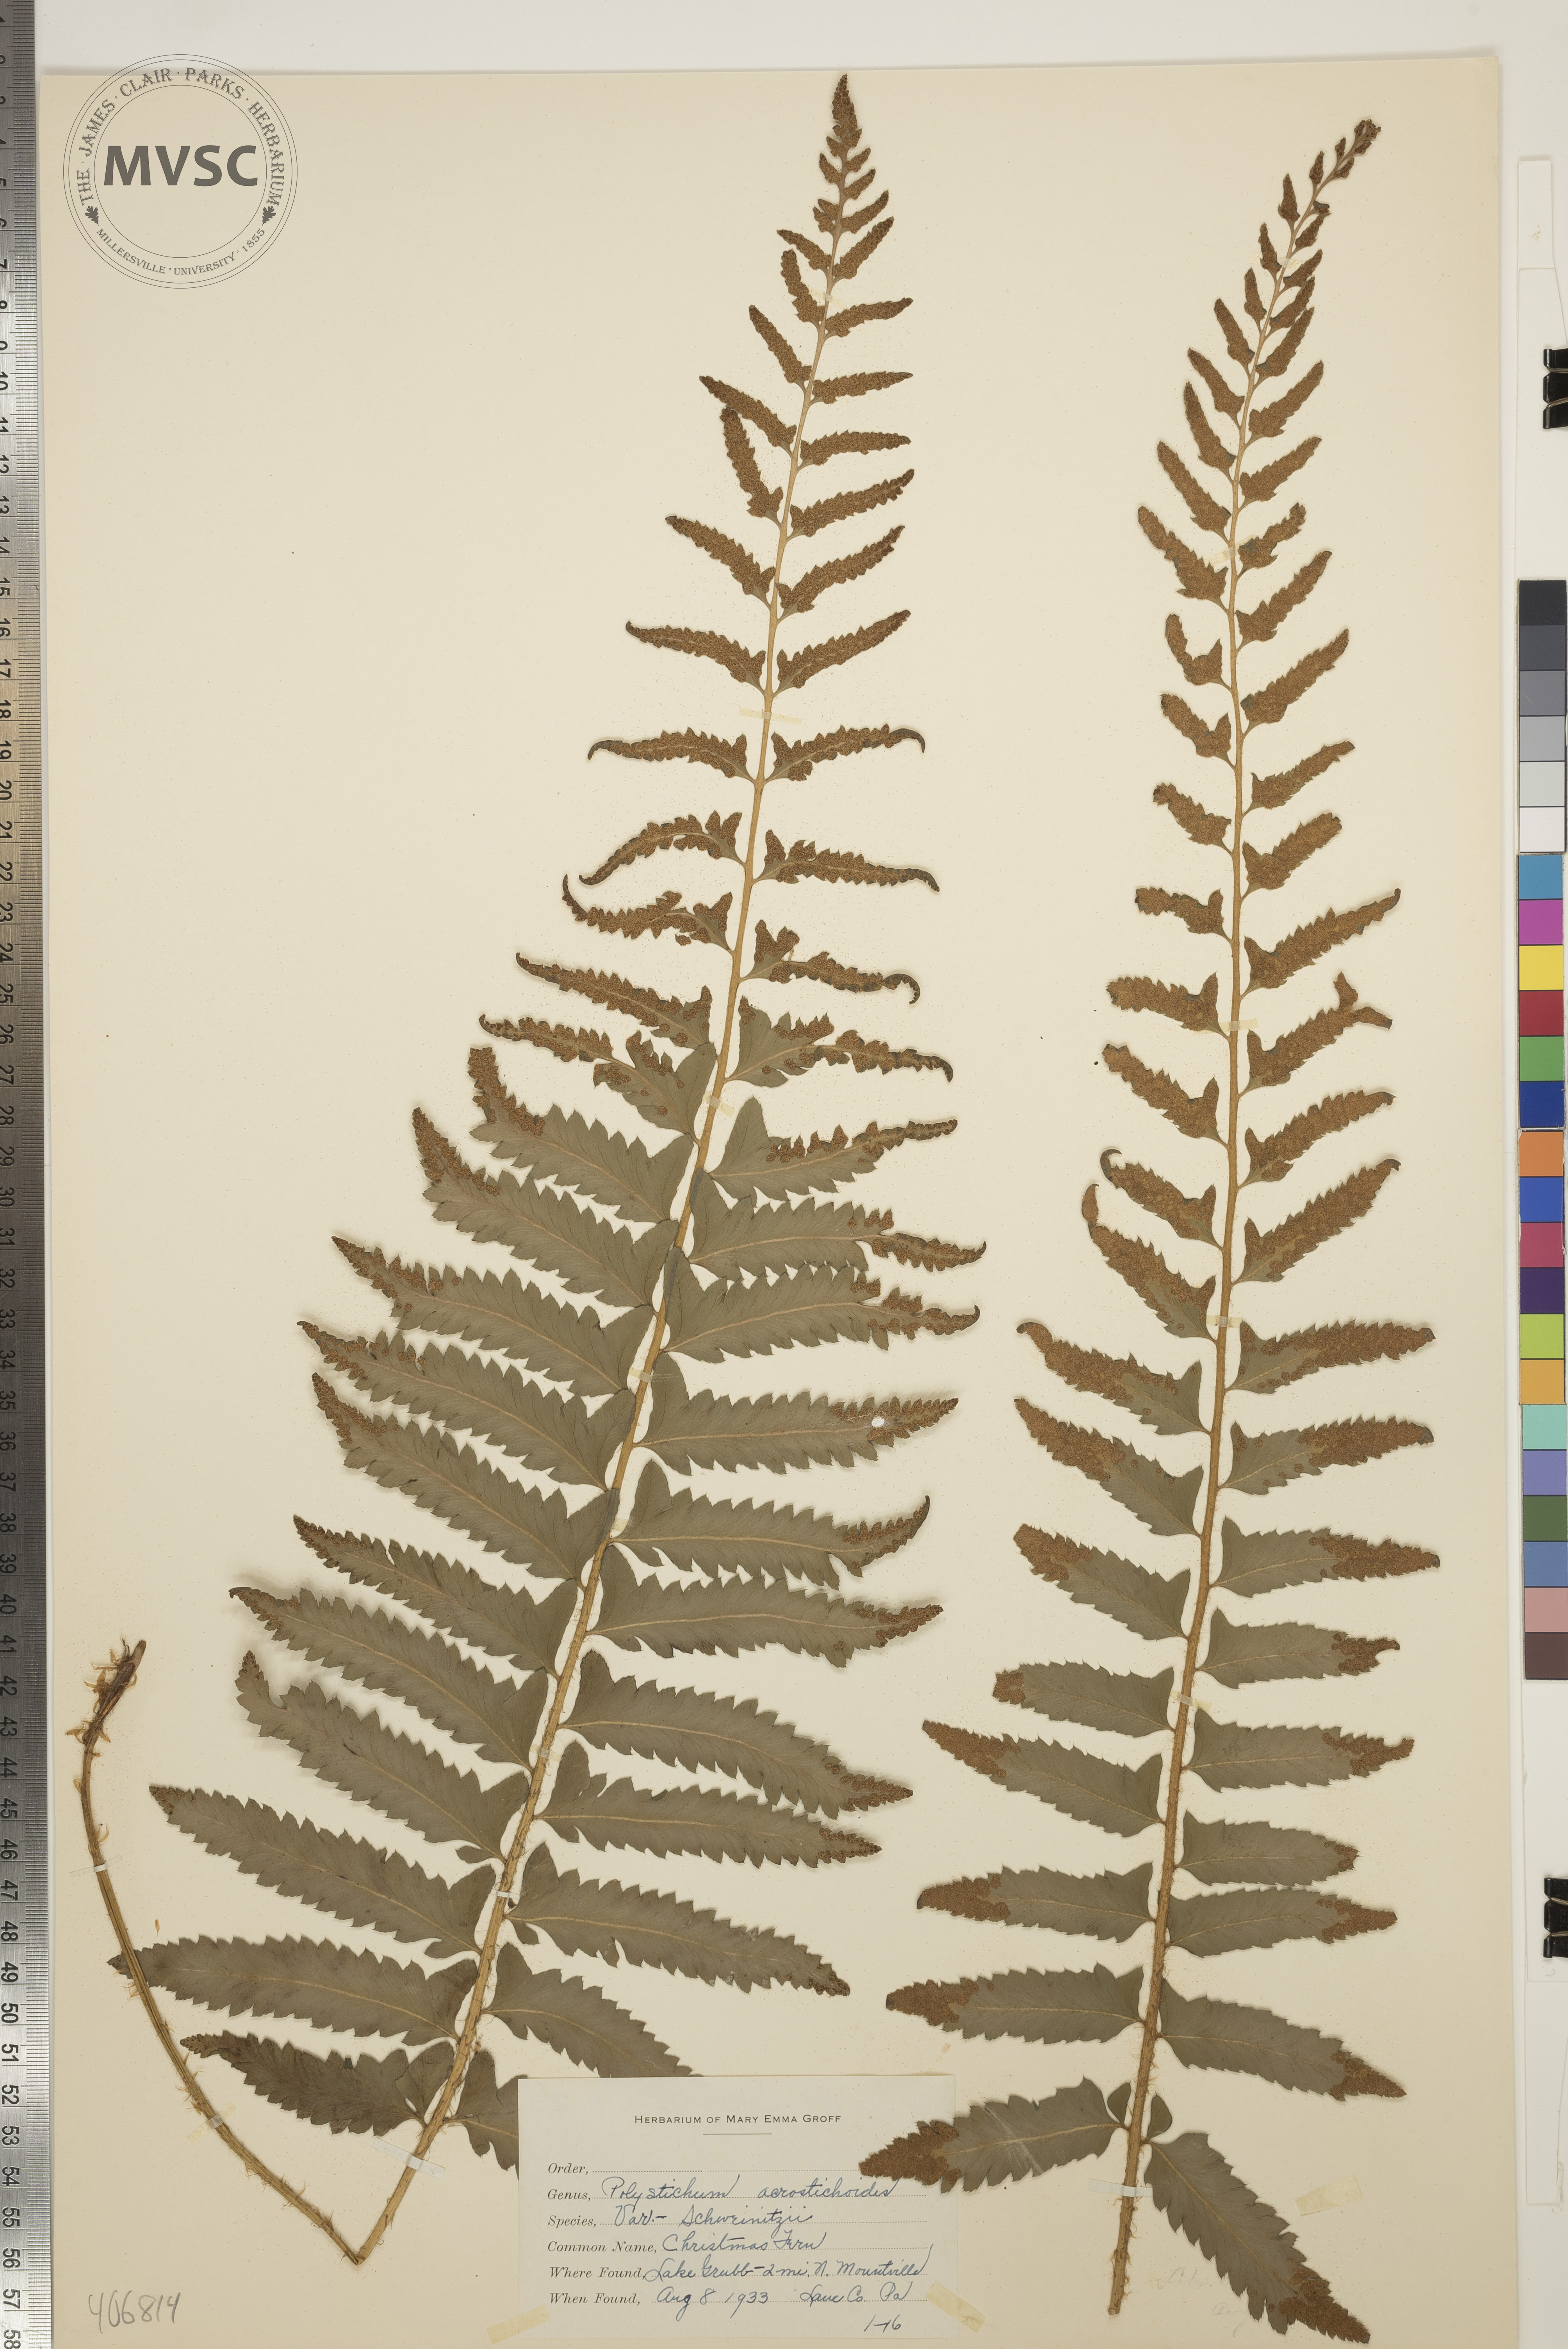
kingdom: Plantae
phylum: Tracheophyta
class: Polypodiopsida
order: Polypodiales
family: Dryopteridaceae
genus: Polystichum
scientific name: Polystichum acrostichoides
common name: Christmas Fern
